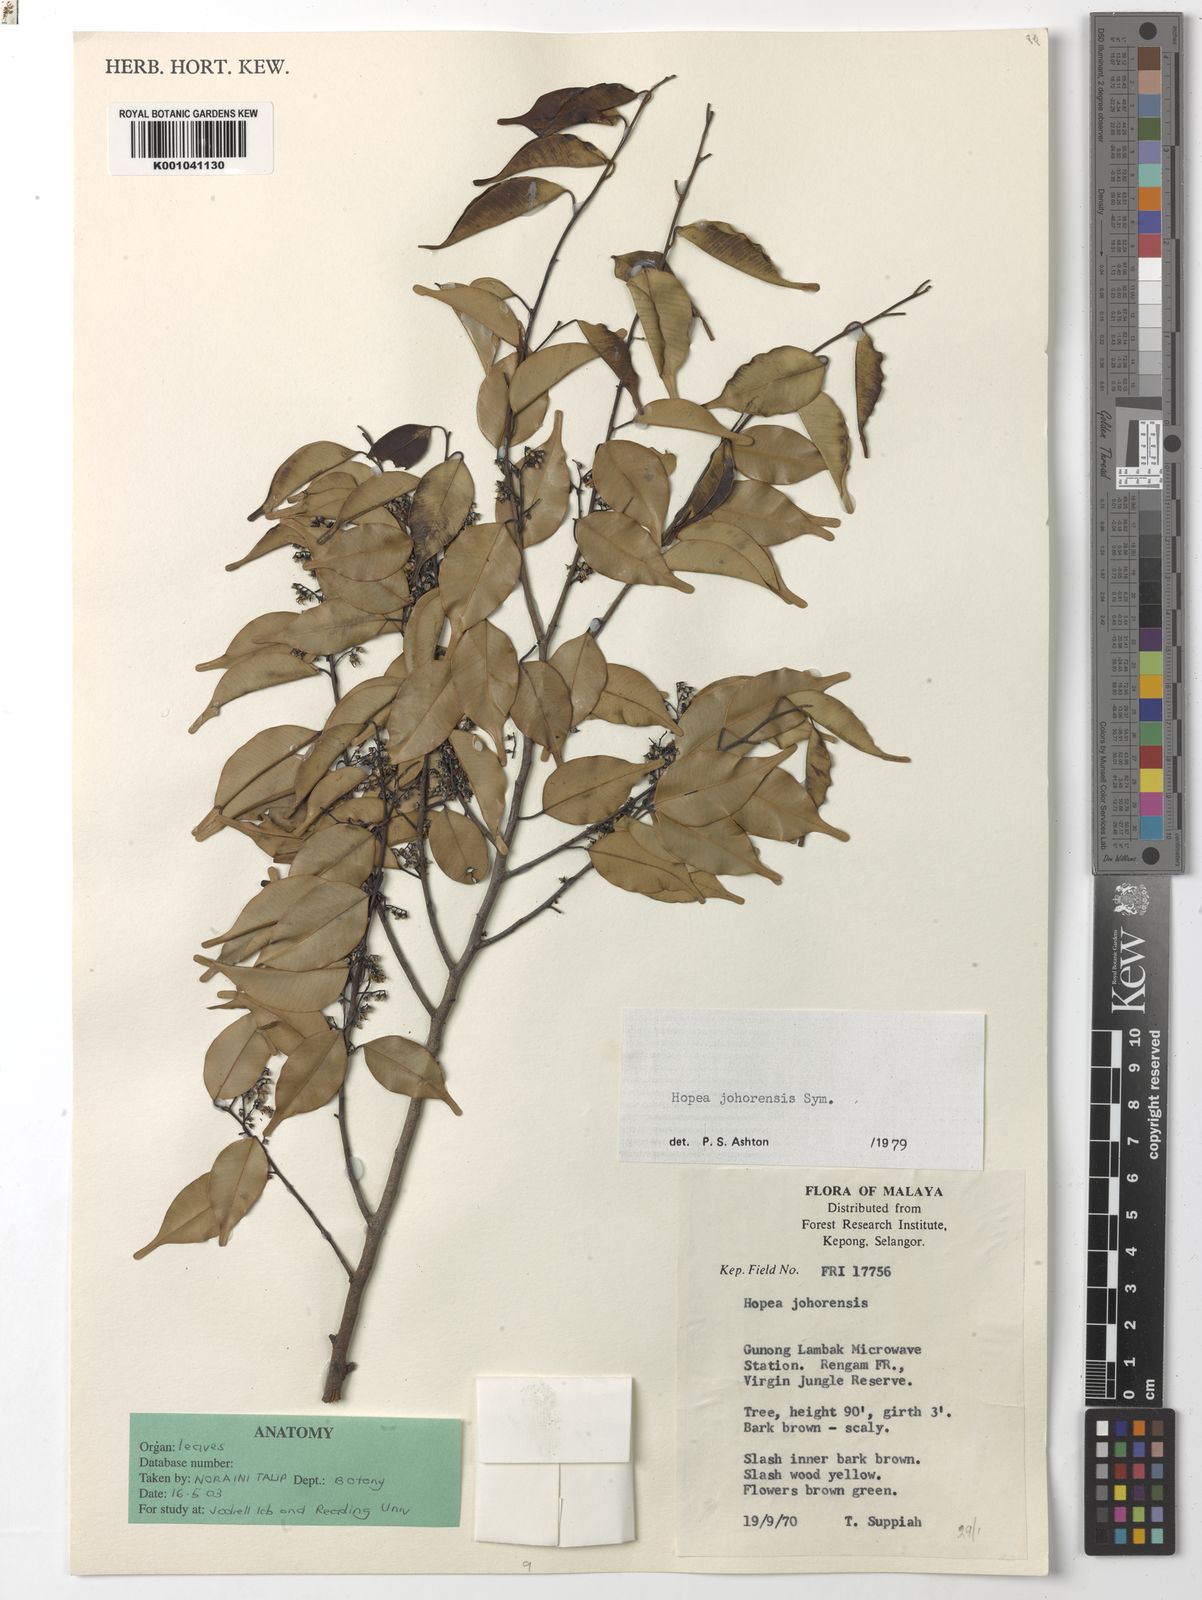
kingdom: Plantae
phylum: Tracheophyta
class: Magnoliopsida
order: Malvales
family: Dipterocarpaceae
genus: Hopea
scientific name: Hopea johorensis
